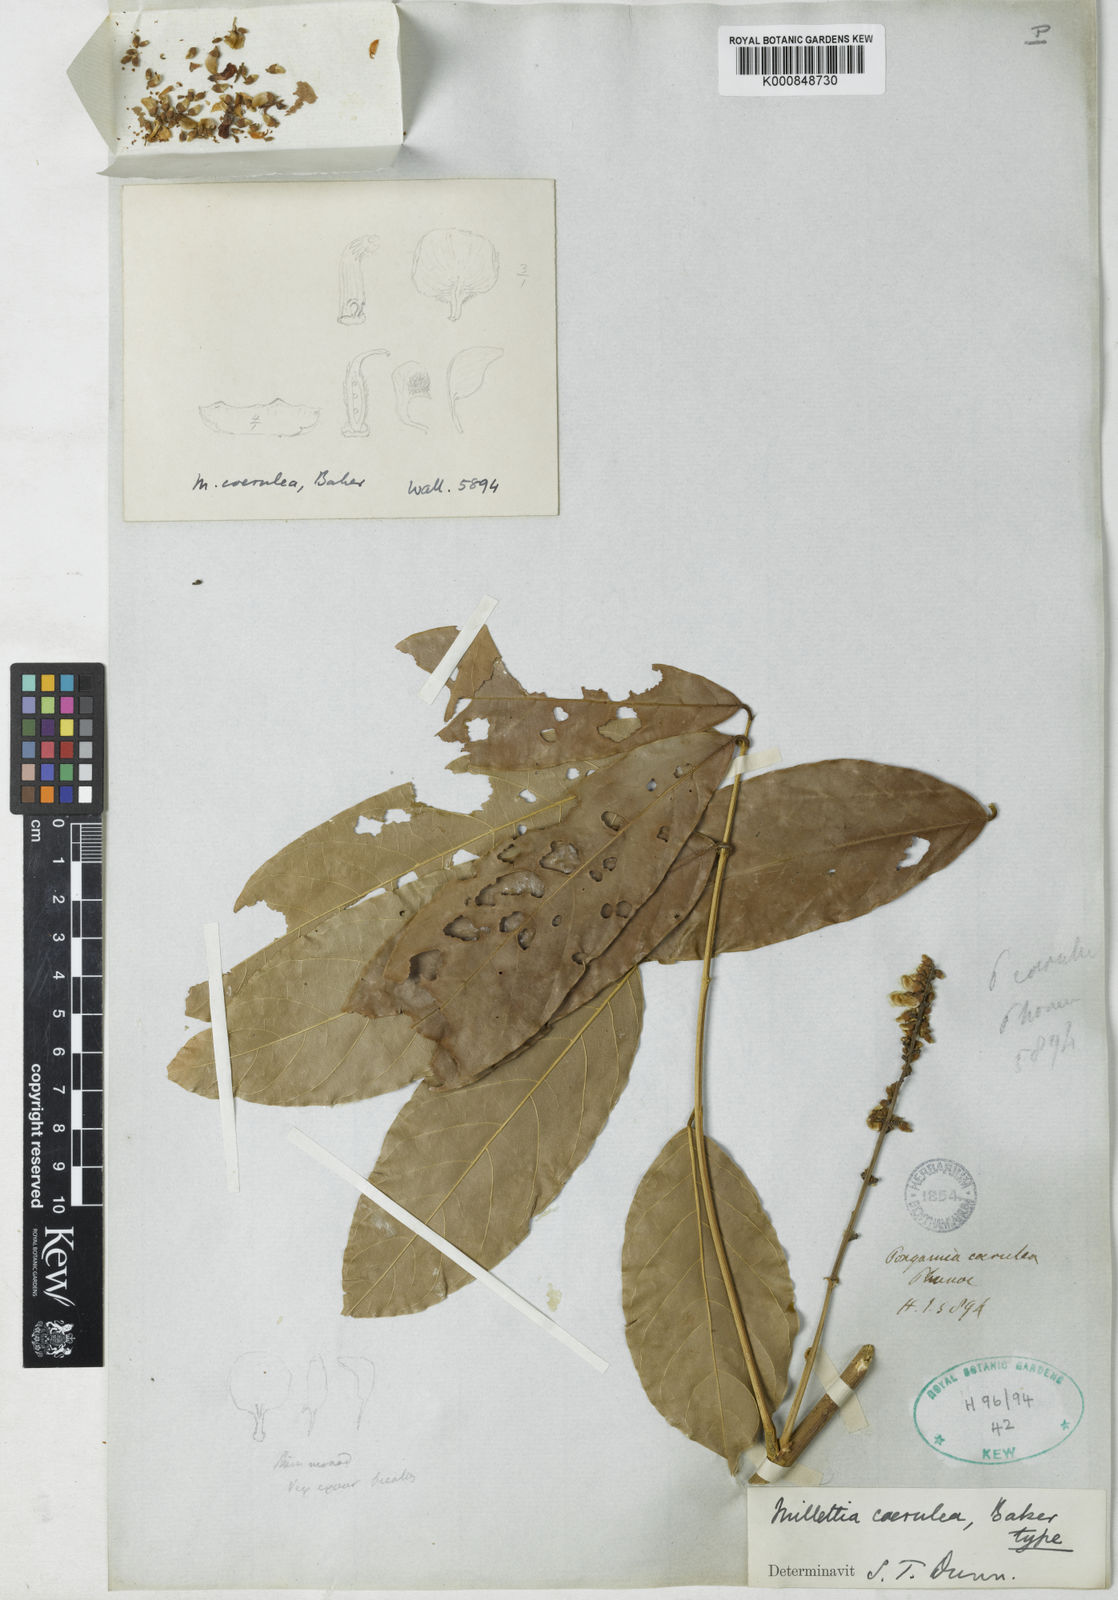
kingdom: Plantae
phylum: Tracheophyta
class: Magnoliopsida
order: Fabales
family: Fabaceae
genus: Millettia
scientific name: Millettia caerulea
